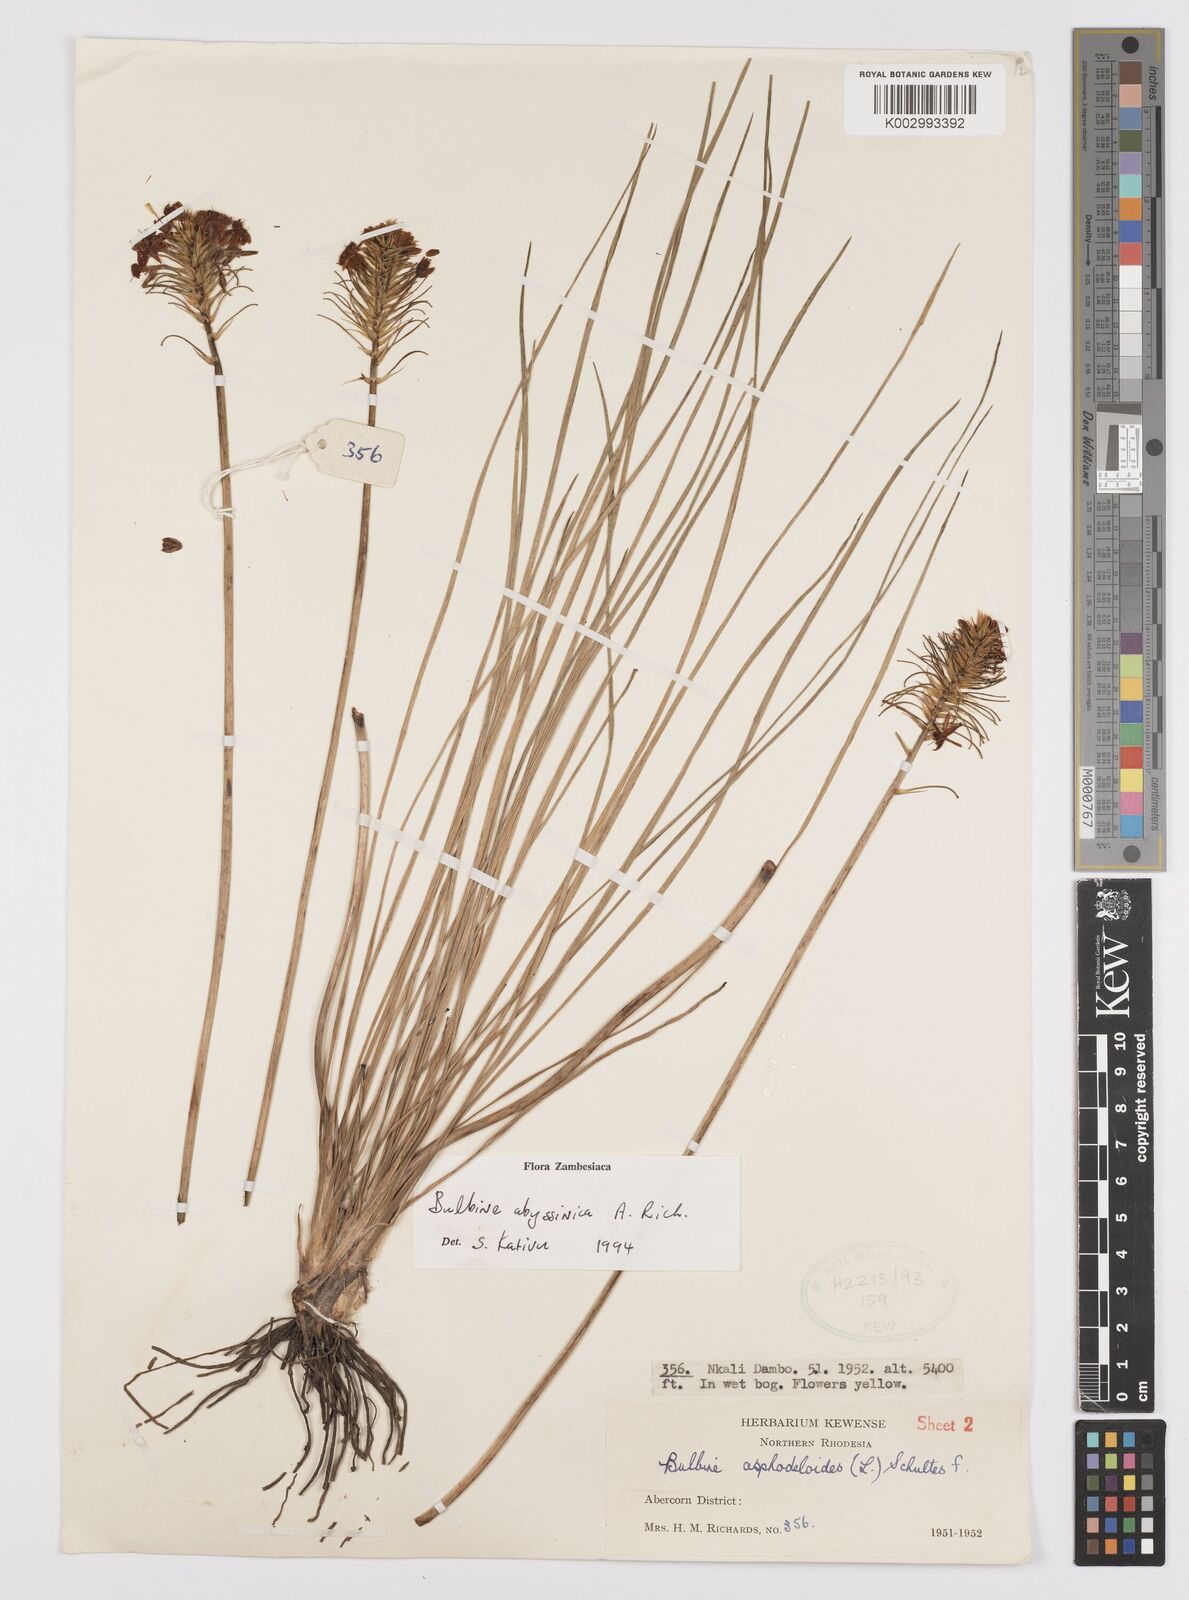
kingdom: Plantae
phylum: Tracheophyta
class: Liliopsida
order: Asparagales
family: Asphodelaceae
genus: Bulbine
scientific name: Bulbine abyssinica
